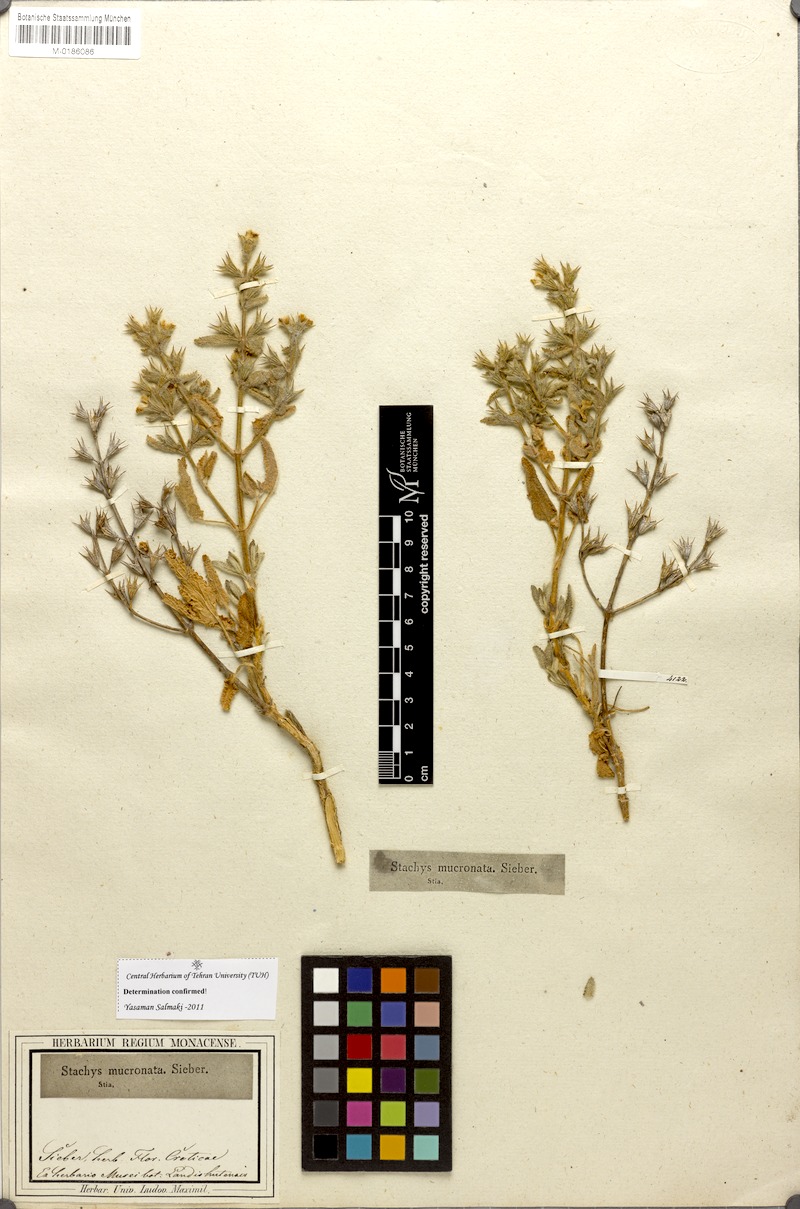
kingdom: Plantae
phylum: Tracheophyta
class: Magnoliopsida
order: Lamiales
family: Lamiaceae
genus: Stachys
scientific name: Stachys mucronata
